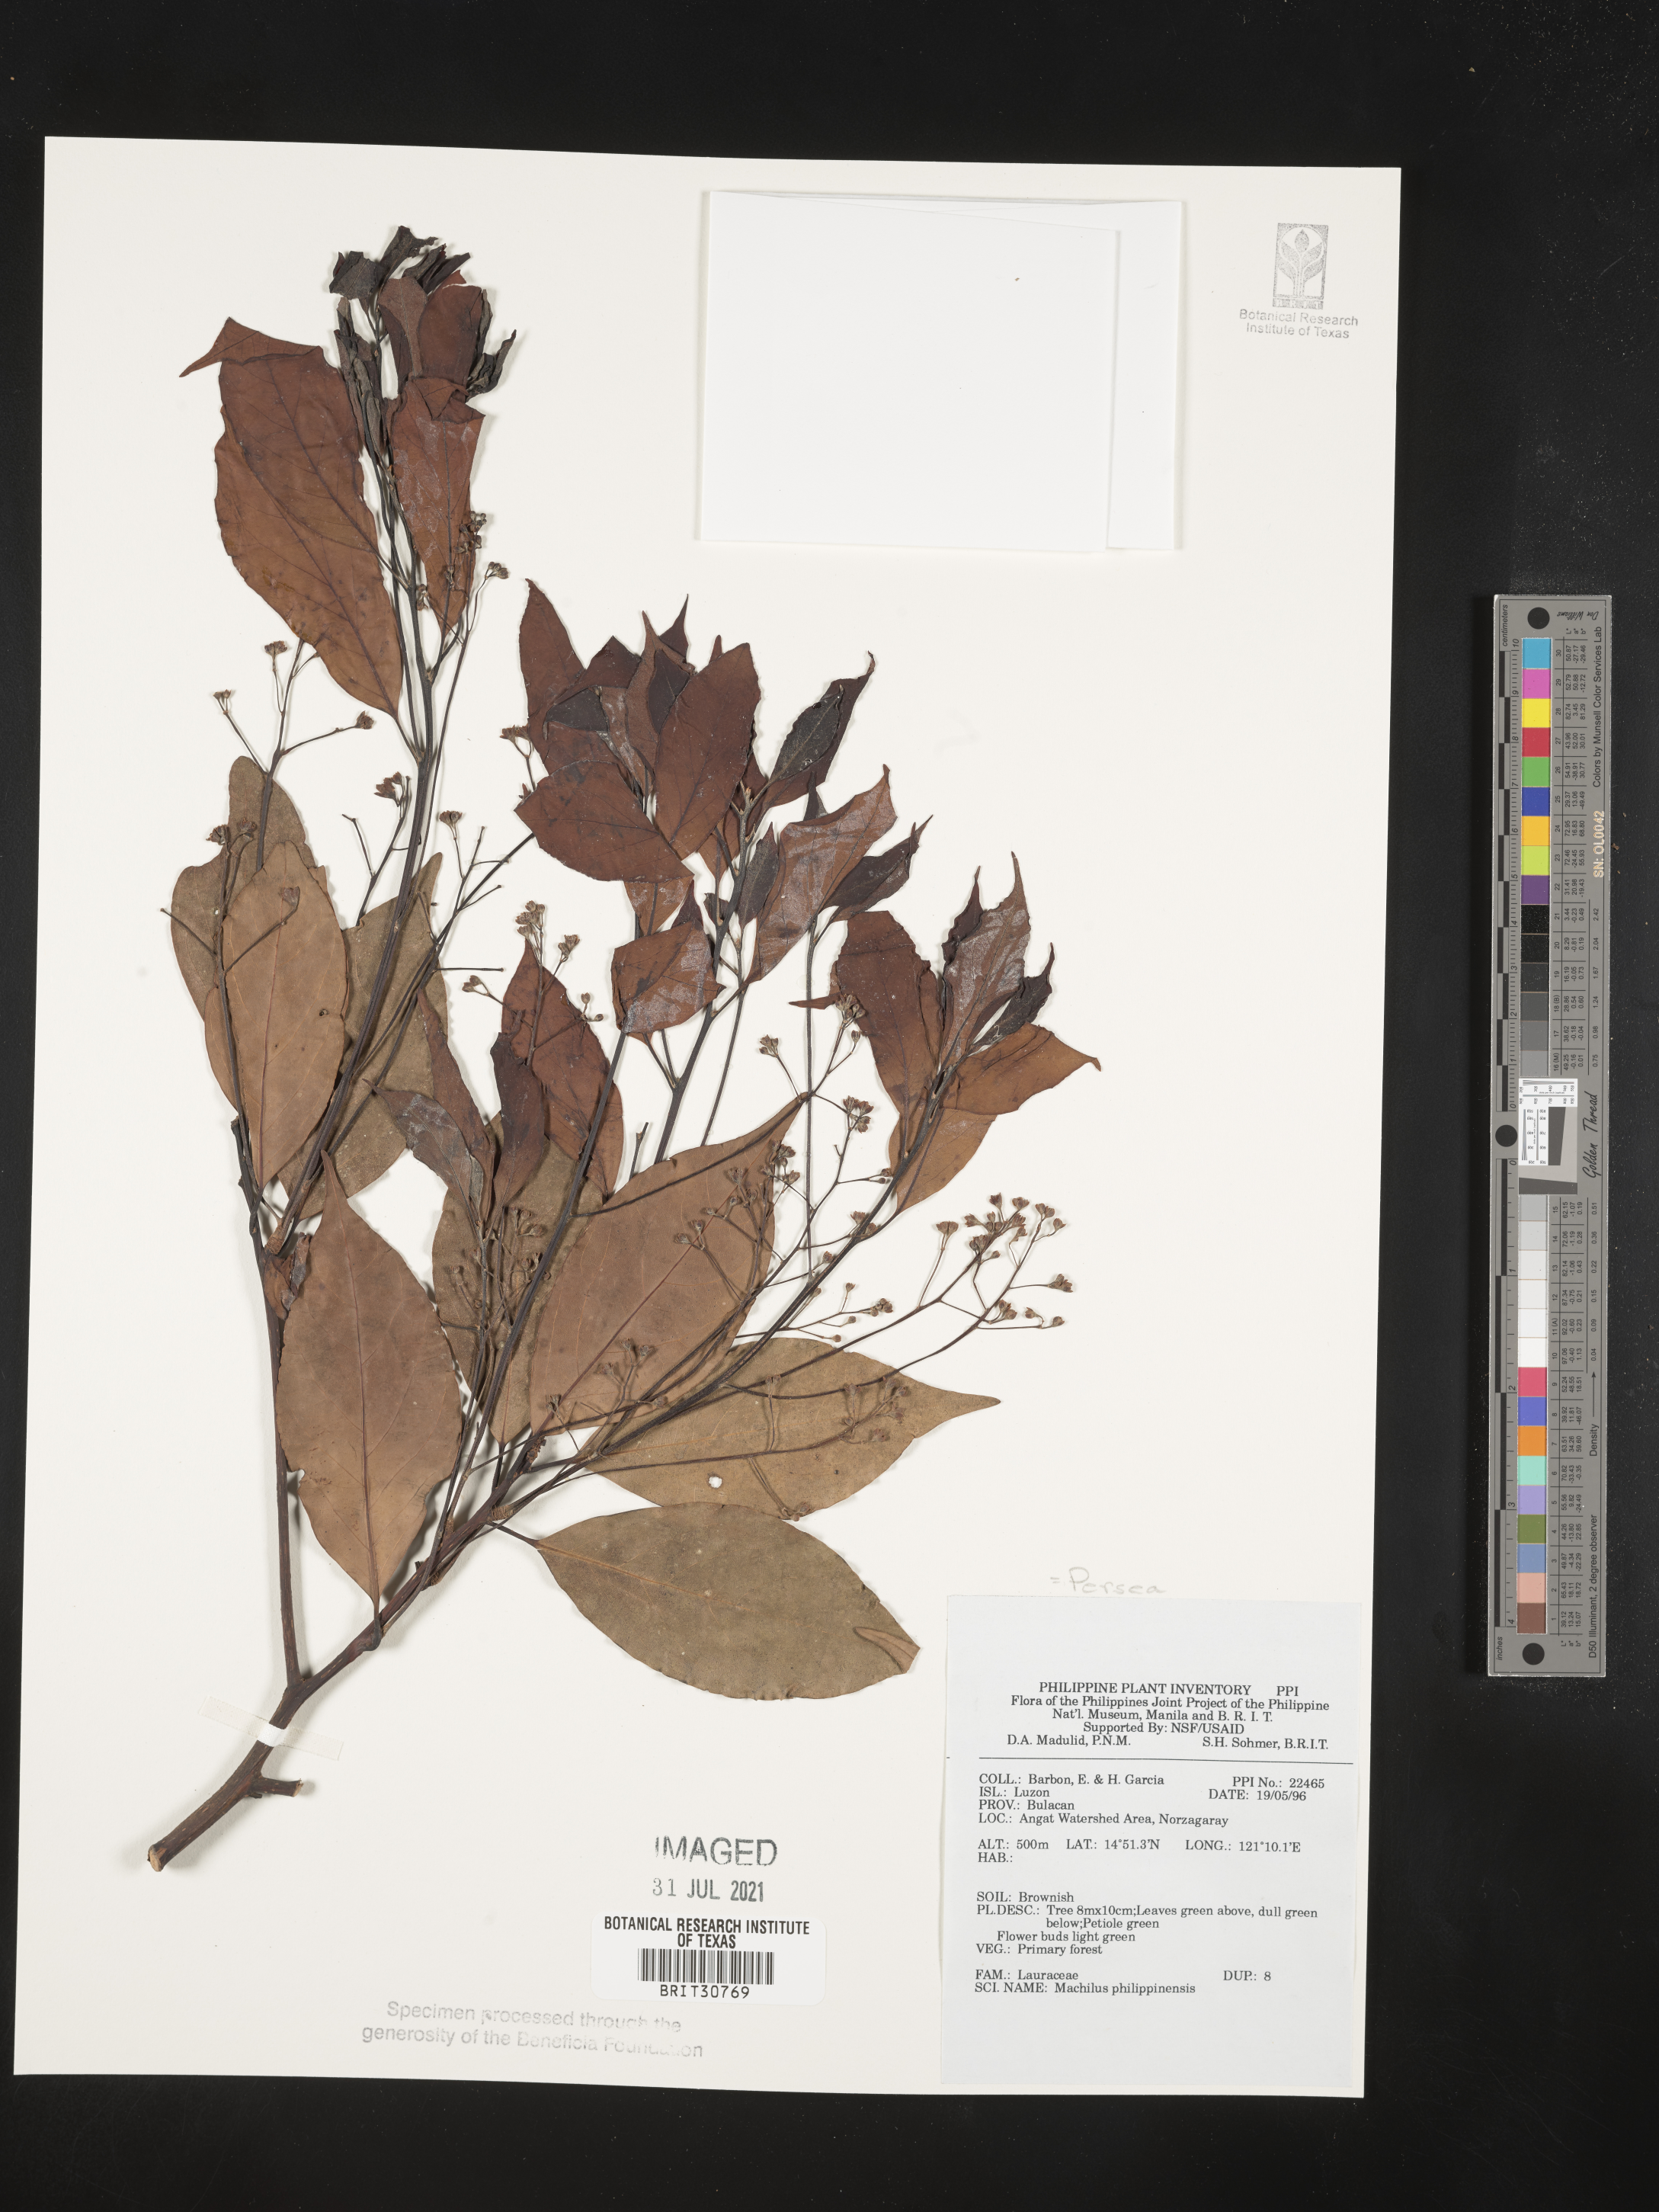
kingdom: Plantae
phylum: Tracheophyta
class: Magnoliopsida
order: Laurales
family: Lauraceae
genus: Cinnamomum
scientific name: Cinnamomum philippinense
